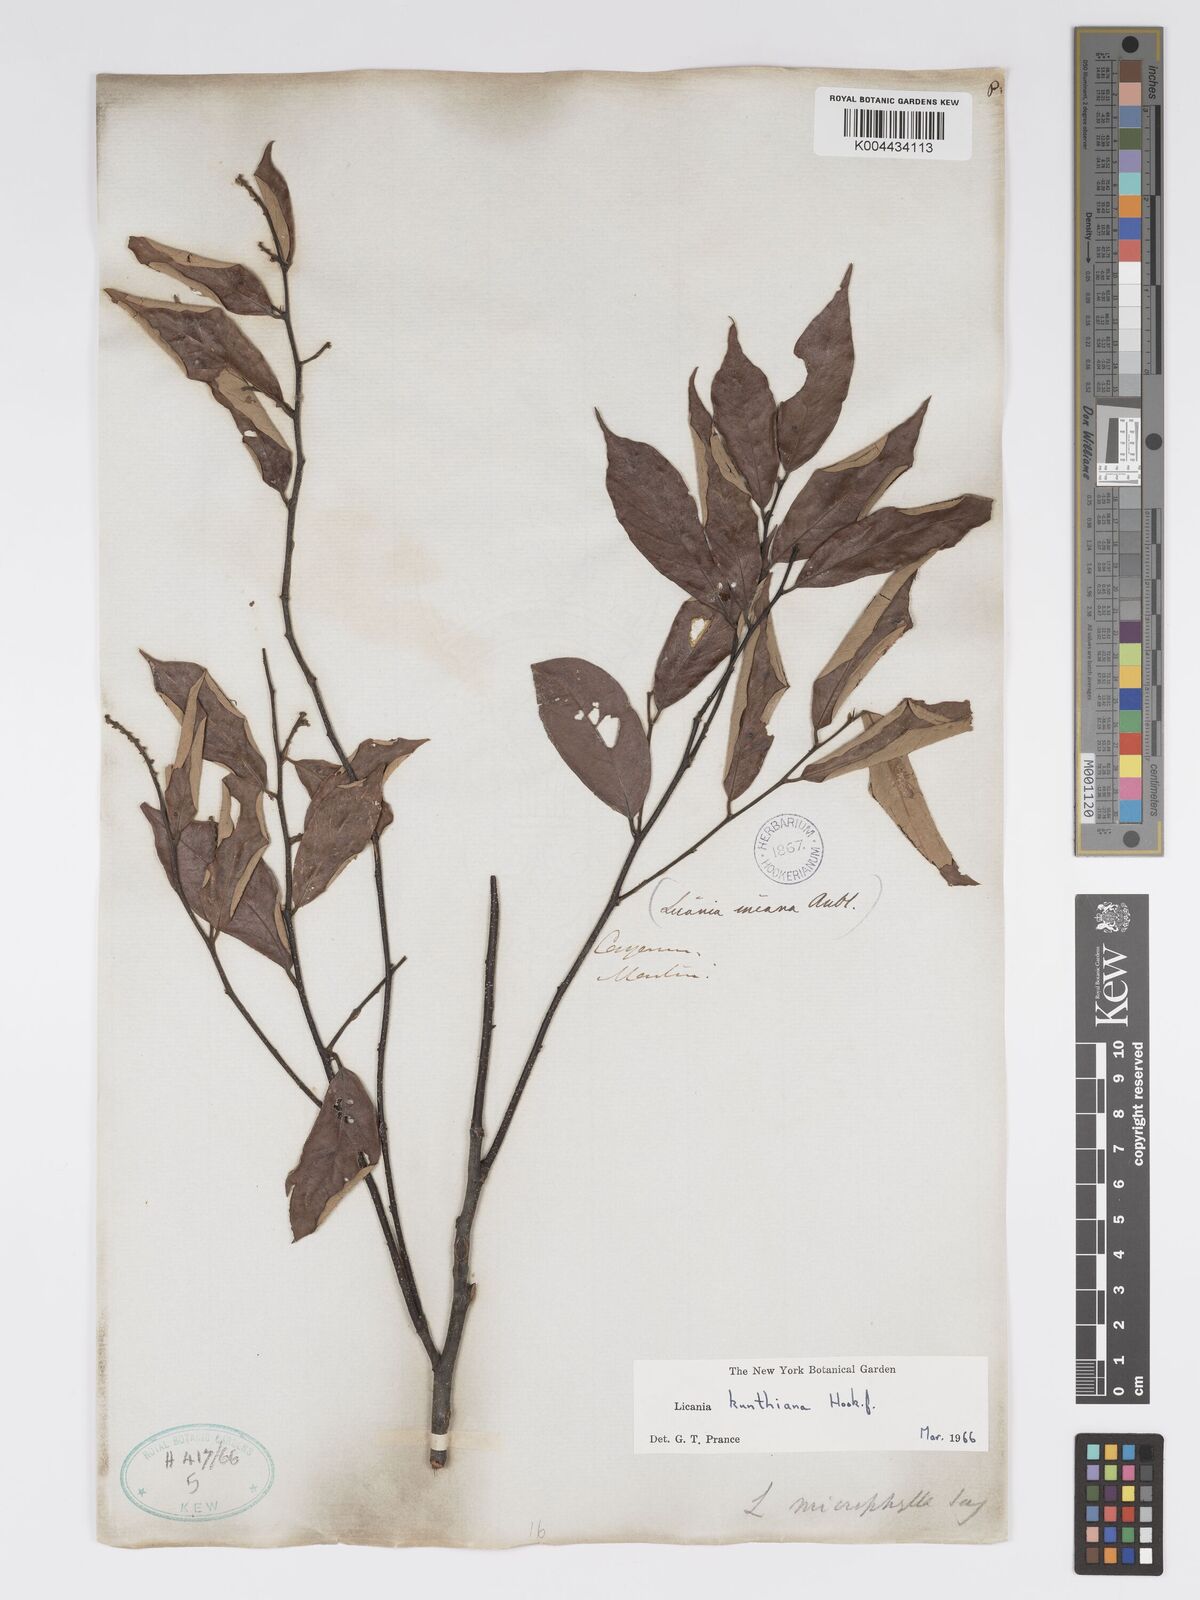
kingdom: Plantae
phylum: Tracheophyta
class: Magnoliopsida
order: Malpighiales
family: Chrysobalanaceae
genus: Licania
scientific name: Licania kunthiana
